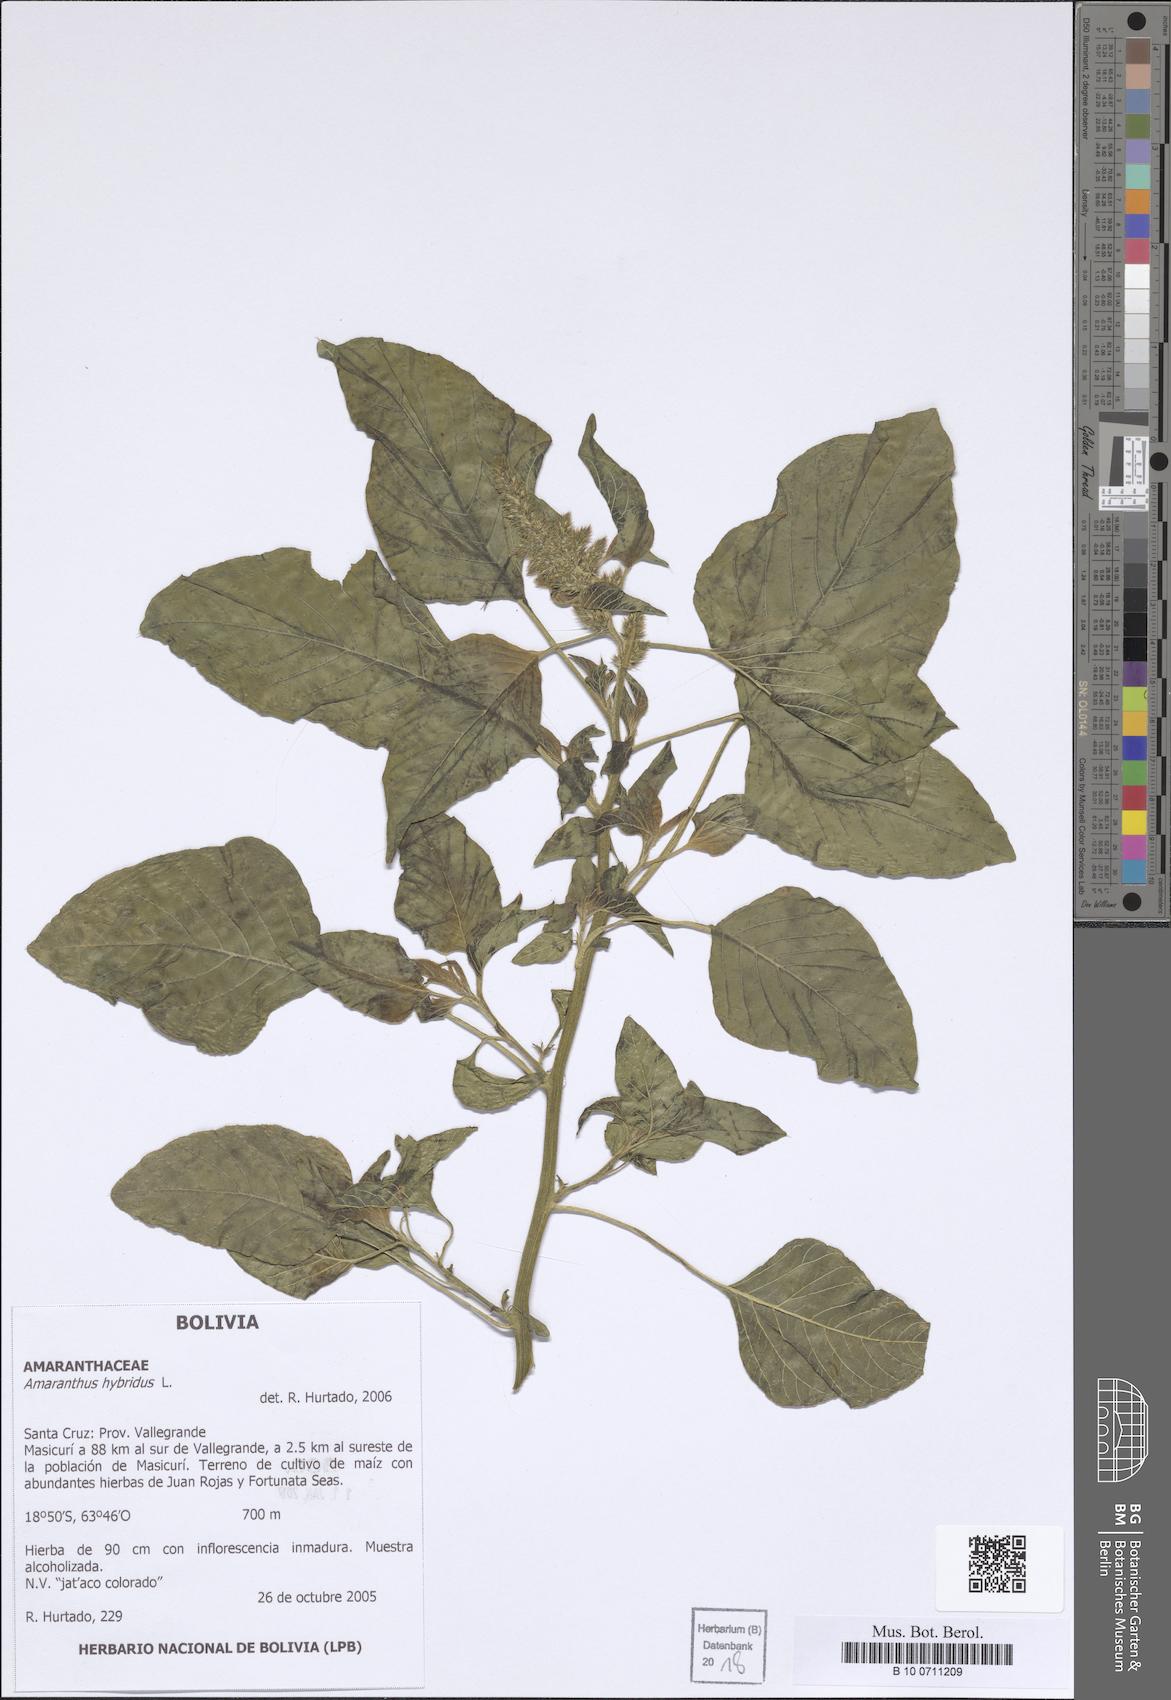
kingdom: Plantae
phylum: Tracheophyta
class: Magnoliopsida
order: Caryophyllales
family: Amaranthaceae
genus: Amaranthus
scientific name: Amaranthus hybridus
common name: Green amaranth
